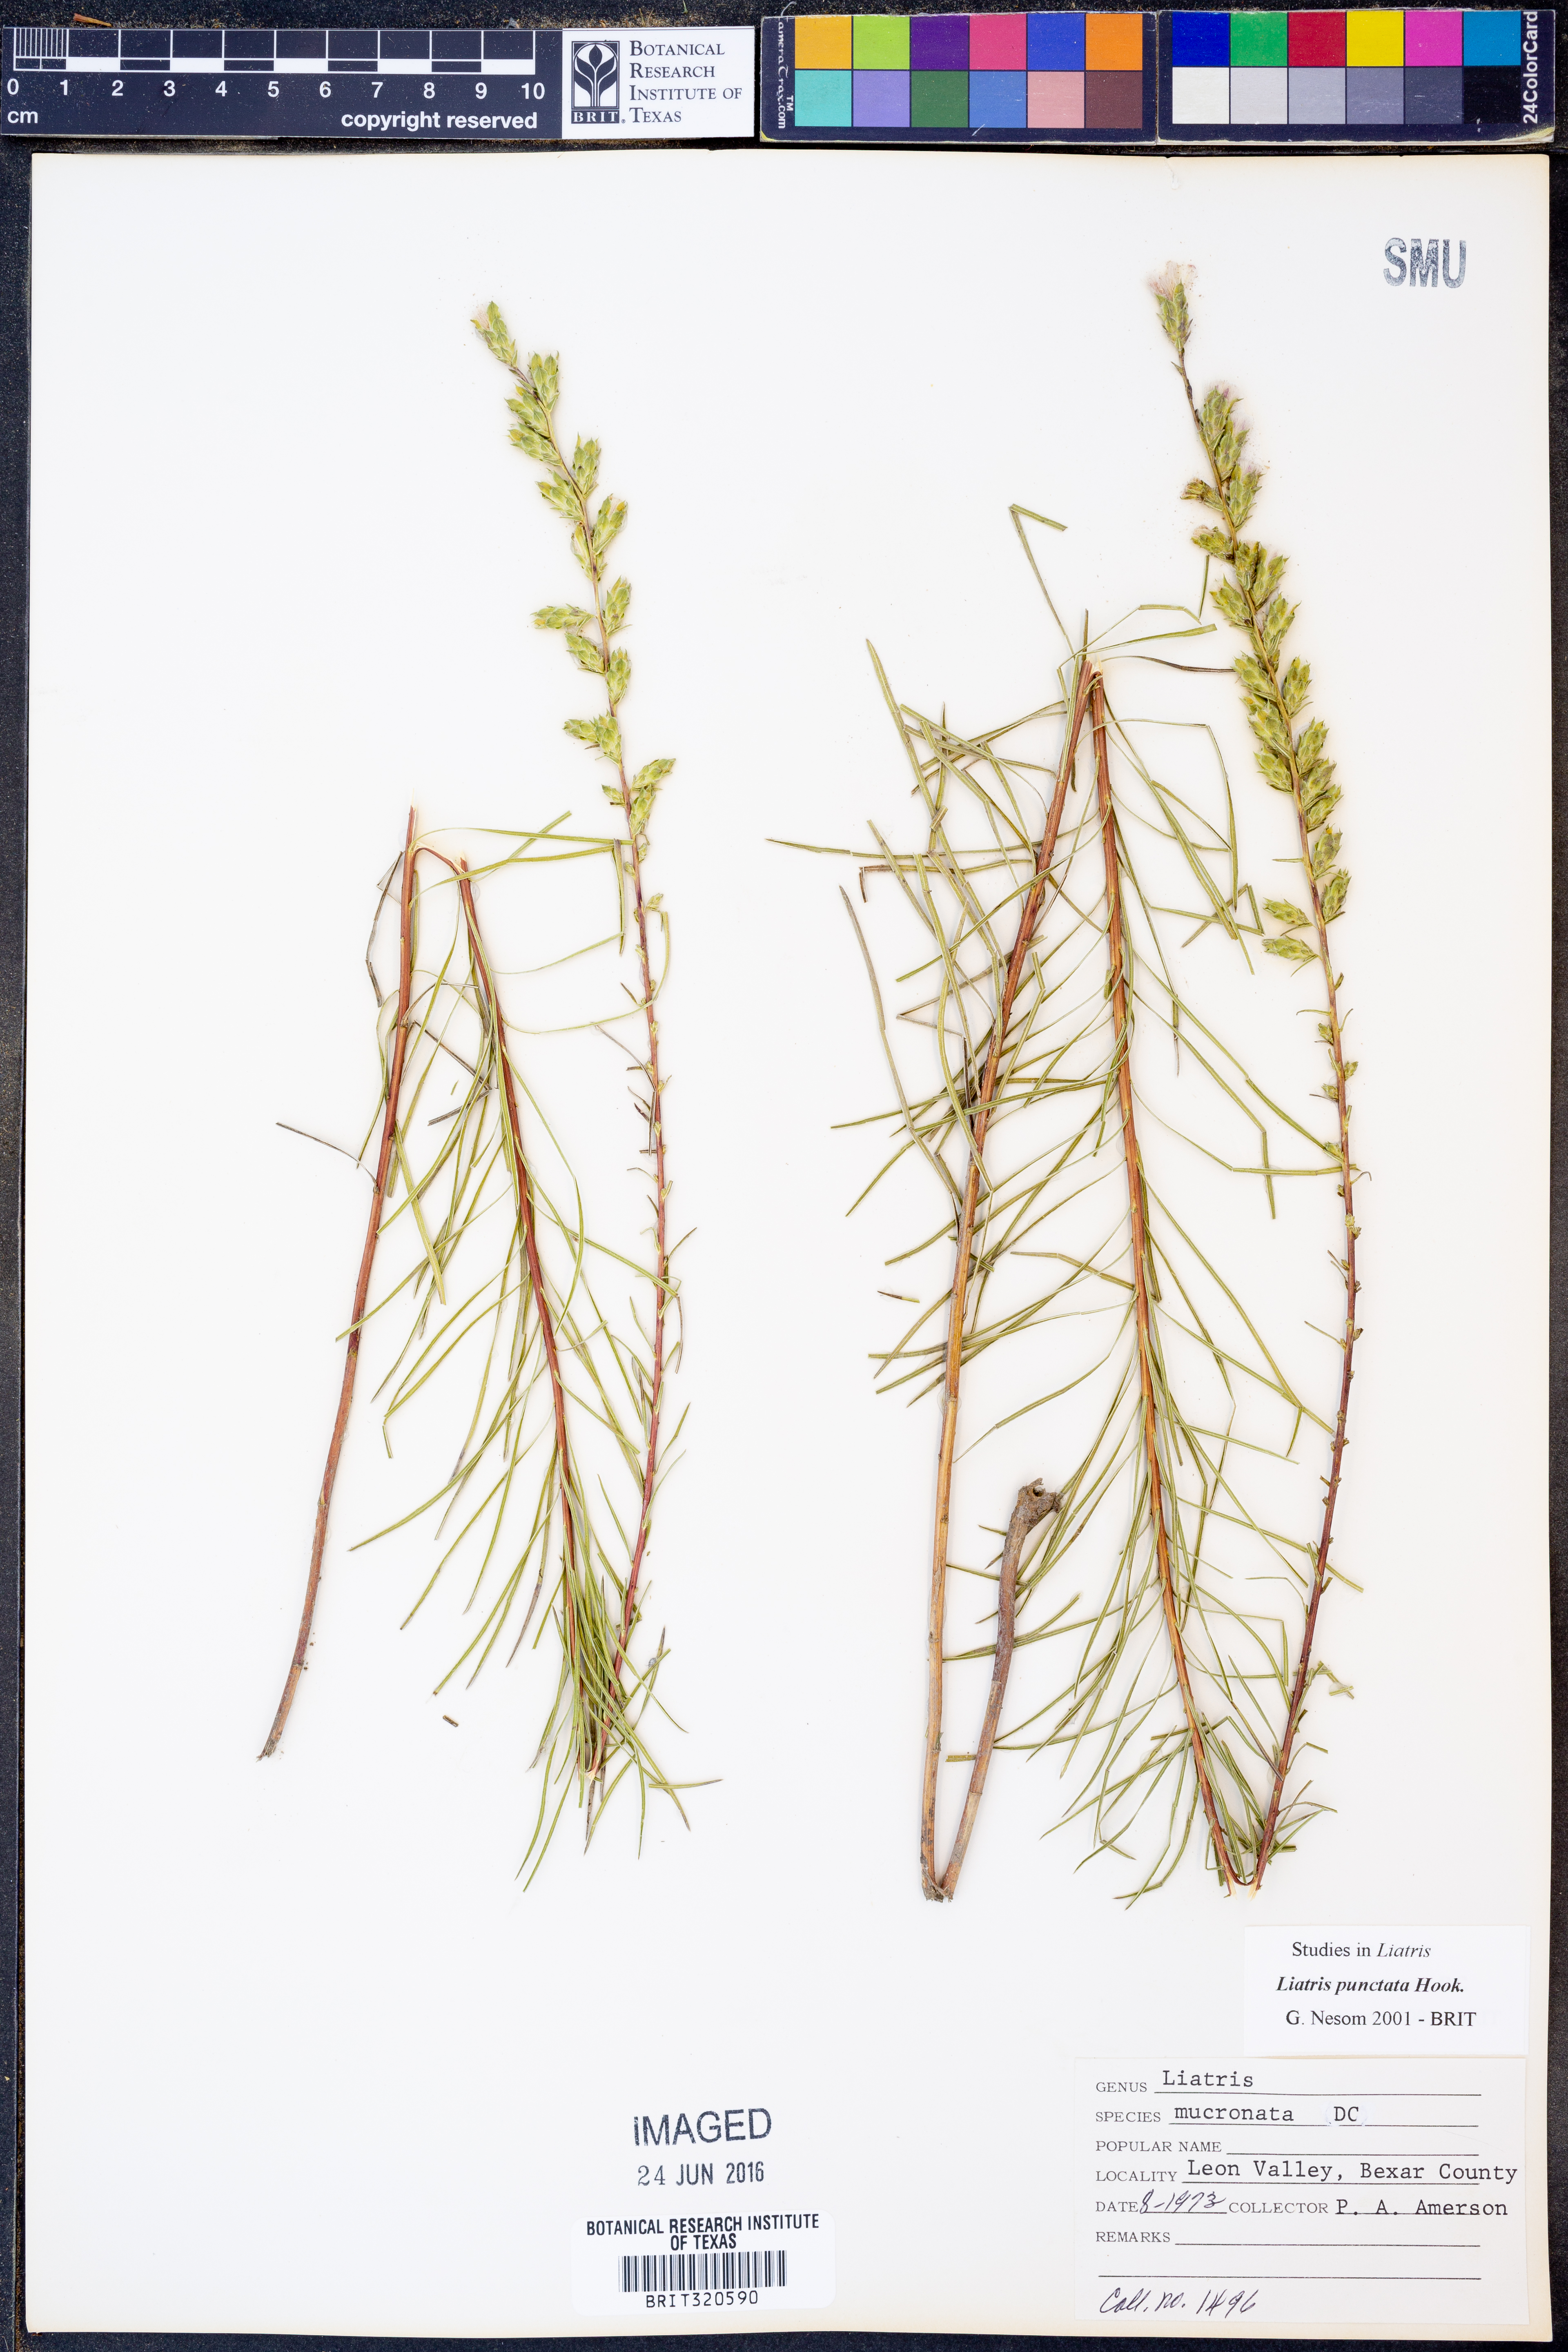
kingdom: Plantae
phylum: Tracheophyta
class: Magnoliopsida
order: Asterales
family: Asteraceae
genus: Liatris
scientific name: Liatris punctata
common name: Dotted gayfeather
